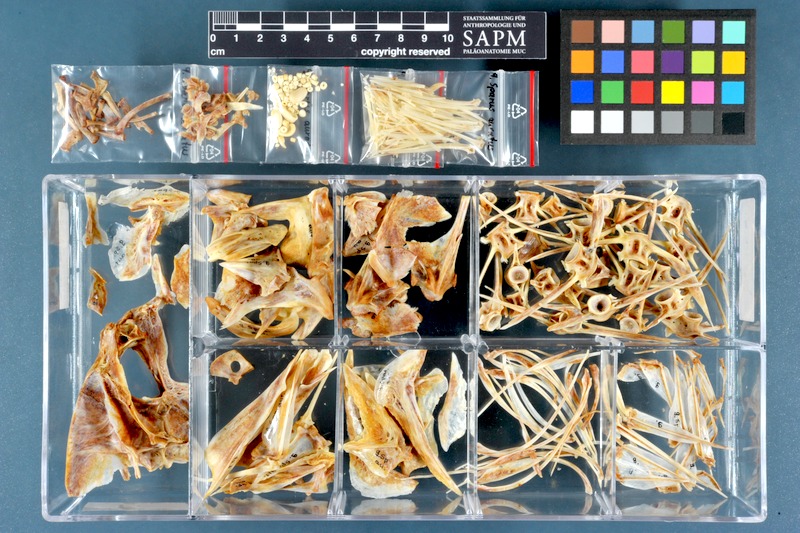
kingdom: Animalia
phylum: Chordata
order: Perciformes
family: Sparidae
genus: Sparus
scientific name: Sparus aurata
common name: Gilthead
